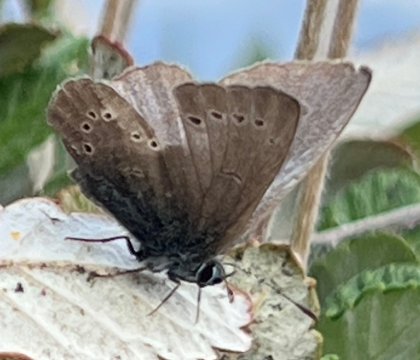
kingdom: Animalia
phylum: Arthropoda
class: Insecta
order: Lepidoptera
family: Lycaenidae
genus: Glaucopsyche
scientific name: Glaucopsyche lygdamus
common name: Silvery Blue
